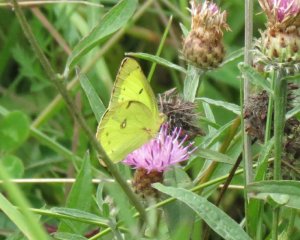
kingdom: Animalia
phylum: Arthropoda
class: Insecta
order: Lepidoptera
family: Pieridae
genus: Colias
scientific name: Colias philodice
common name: Clouded Sulphur
